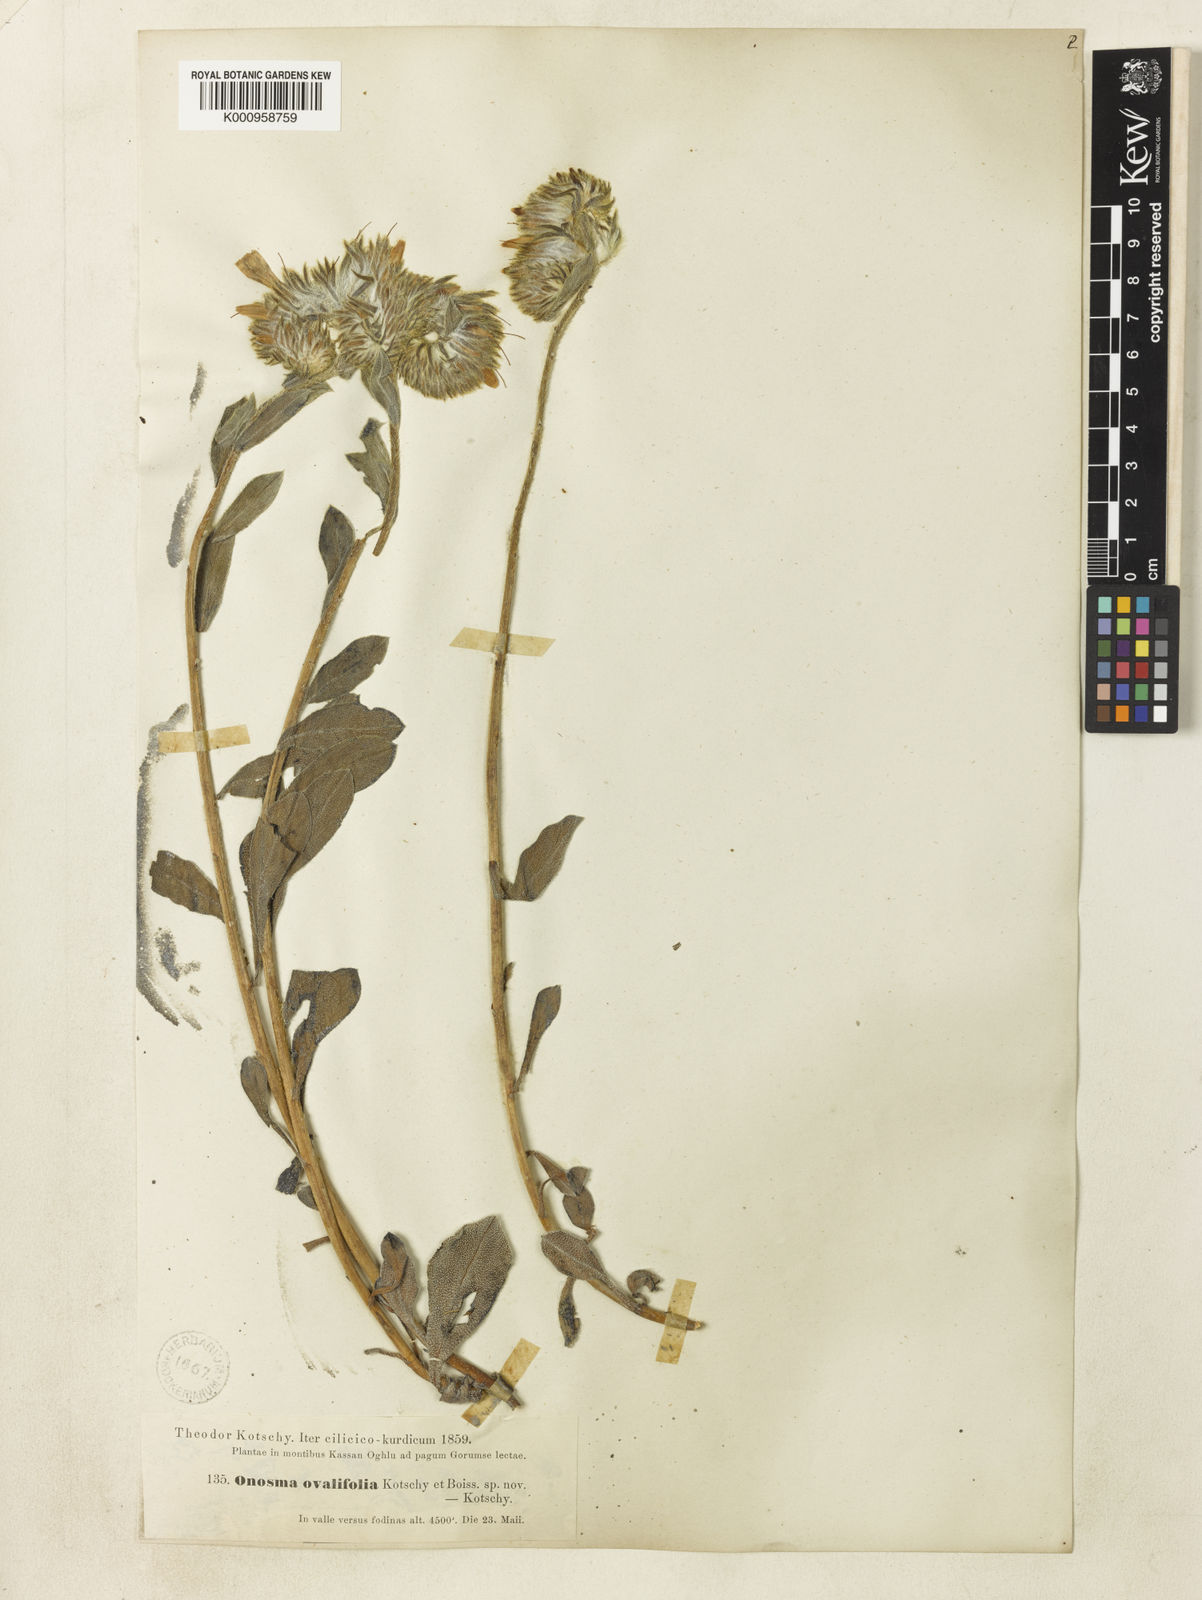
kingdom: Plantae
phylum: Tracheophyta
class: Magnoliopsida
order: Boraginales
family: Boraginaceae
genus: Onosma
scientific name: Onosma ovalifolia
